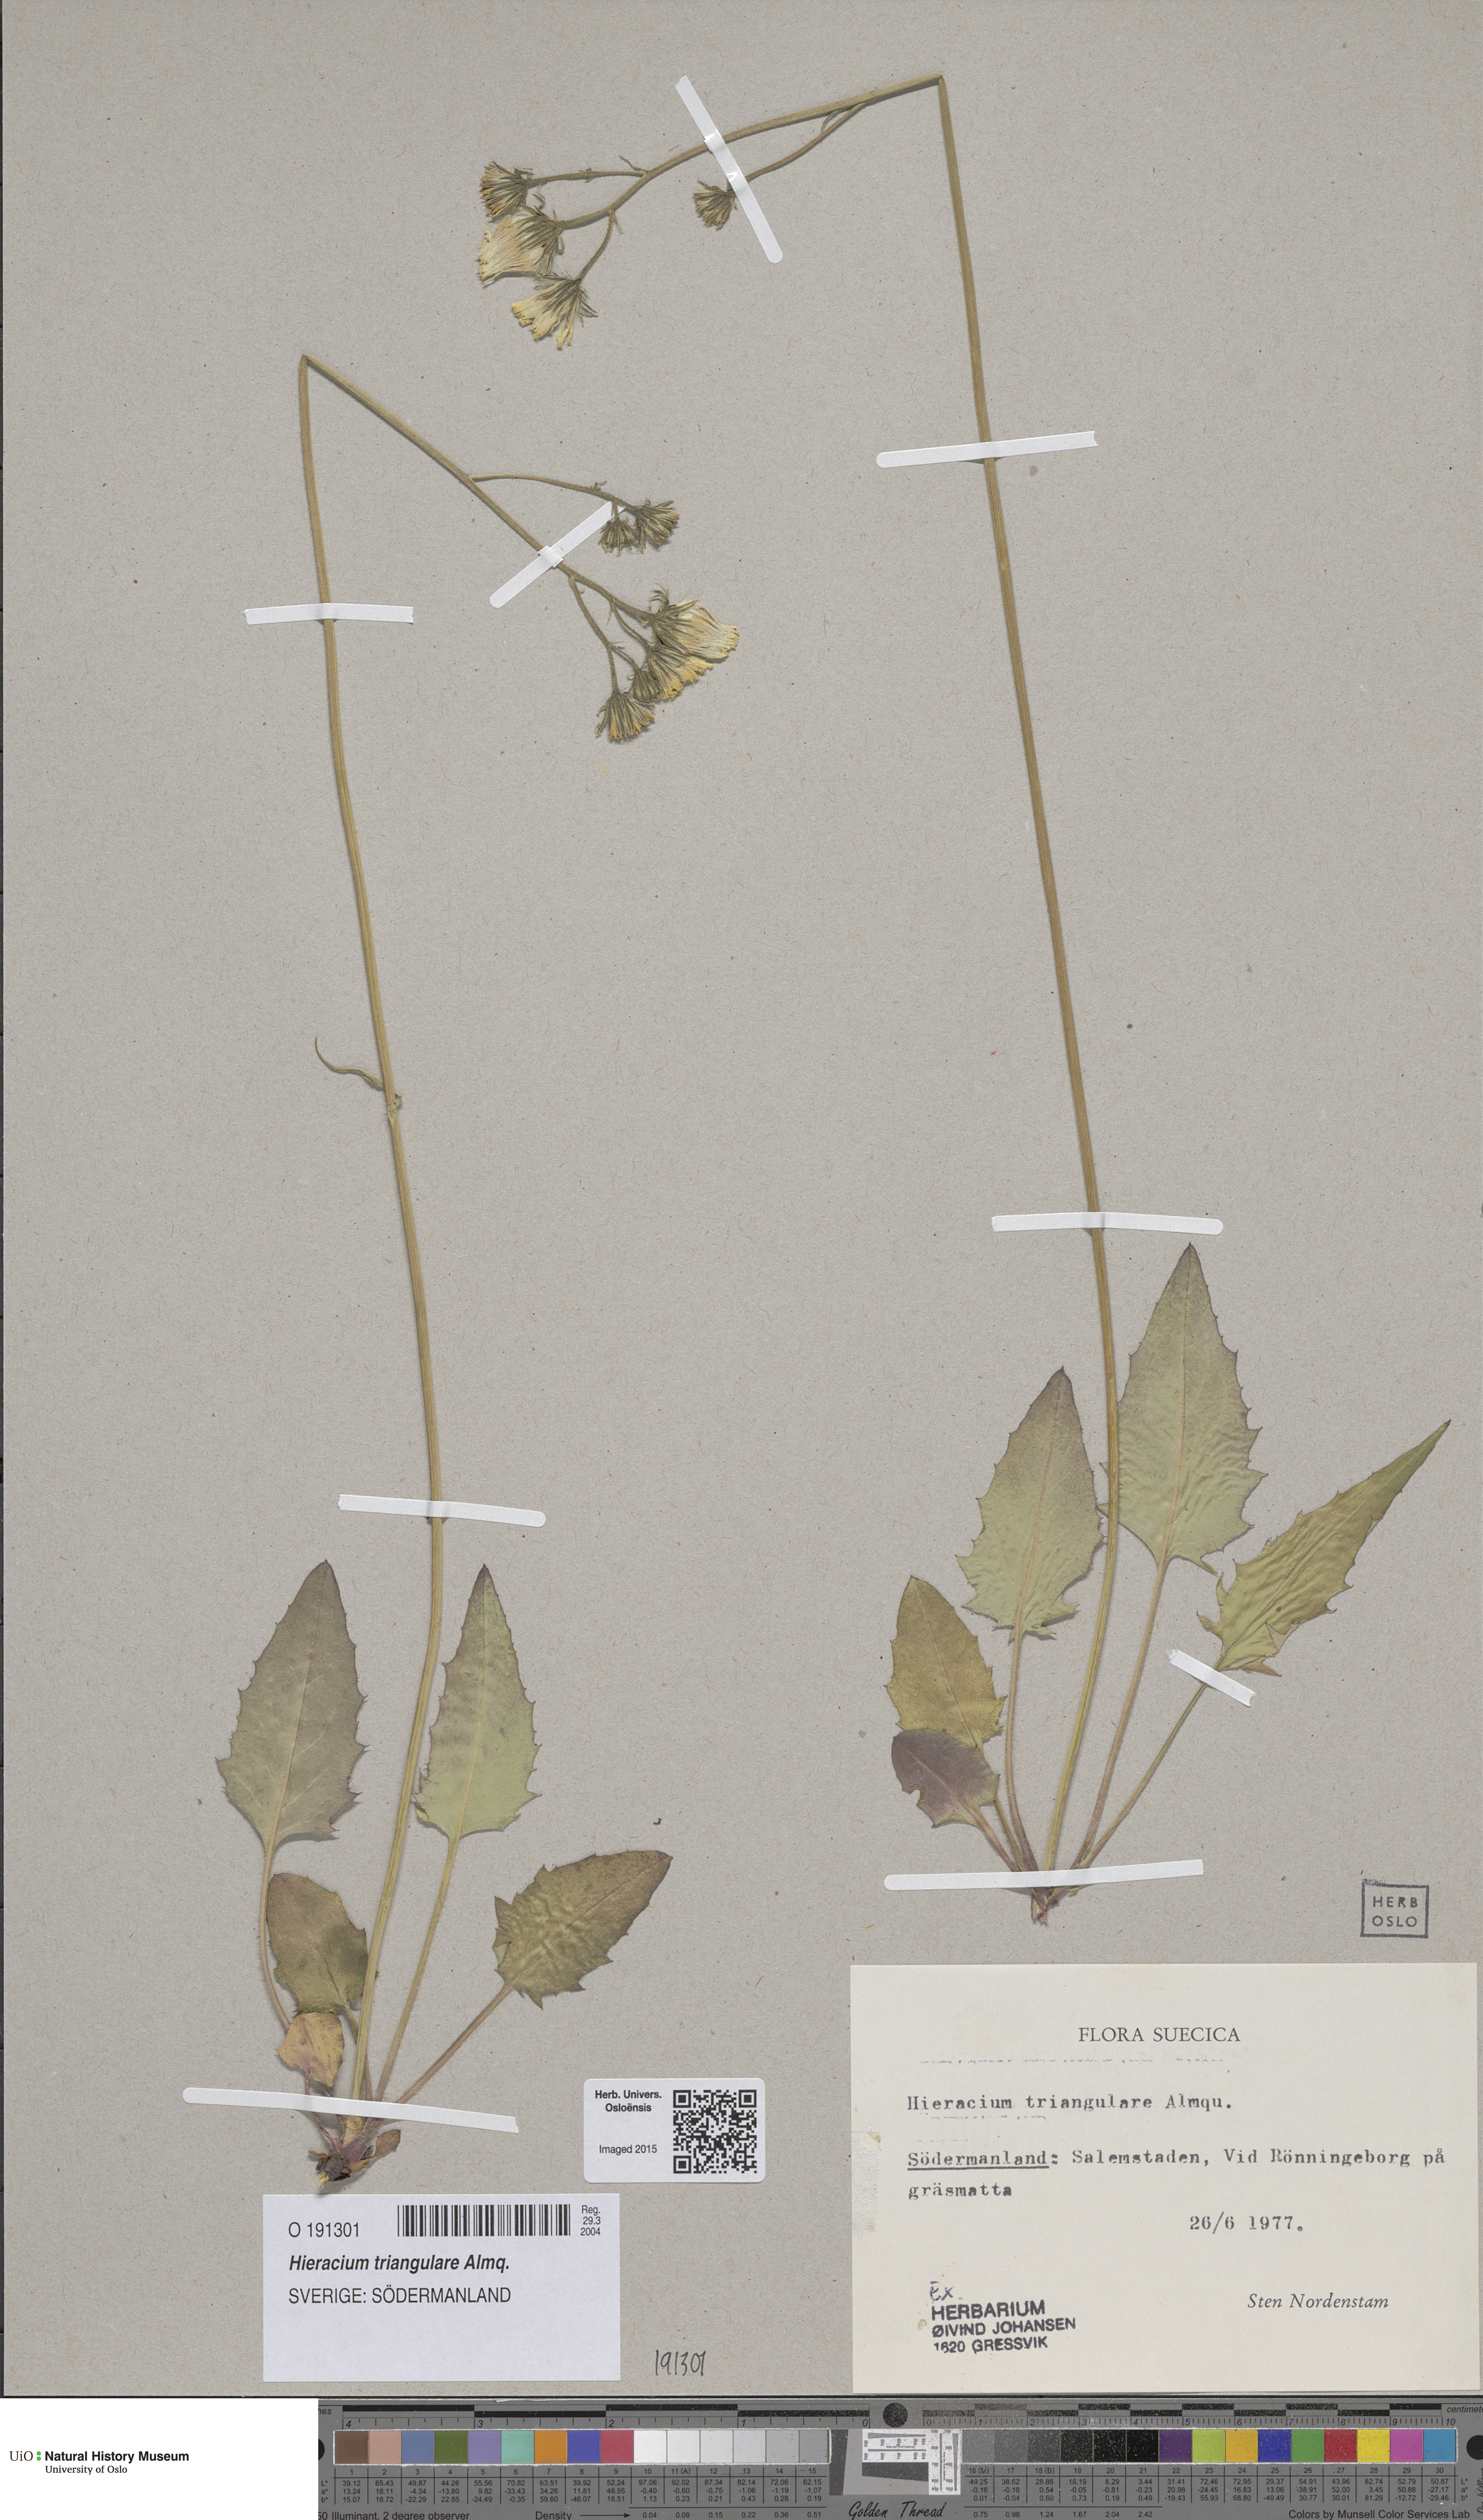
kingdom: Plantae
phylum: Tracheophyta
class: Magnoliopsida
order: Asterales
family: Asteraceae
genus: Hieracium
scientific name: Hieracium triangulare
